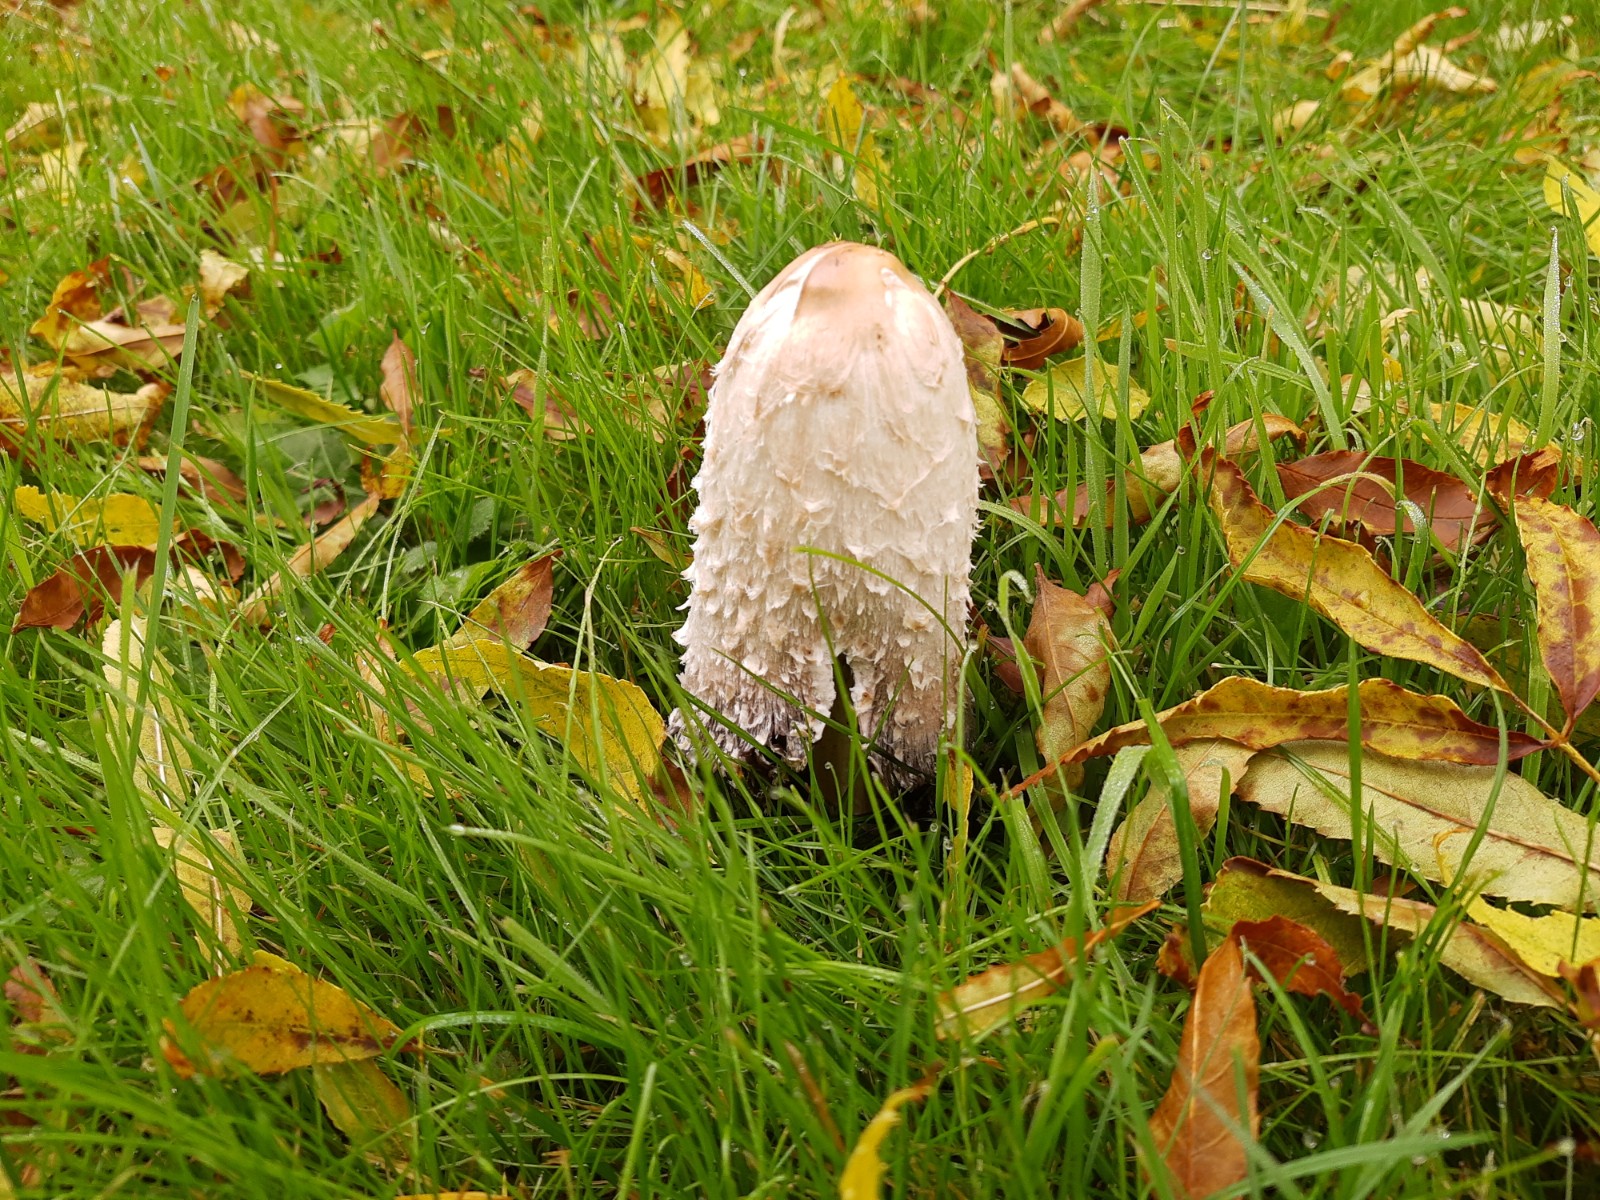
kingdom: Fungi
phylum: Basidiomycota
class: Agaricomycetes
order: Agaricales
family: Agaricaceae
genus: Coprinus
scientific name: Coprinus comatus
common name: stor parykhat
